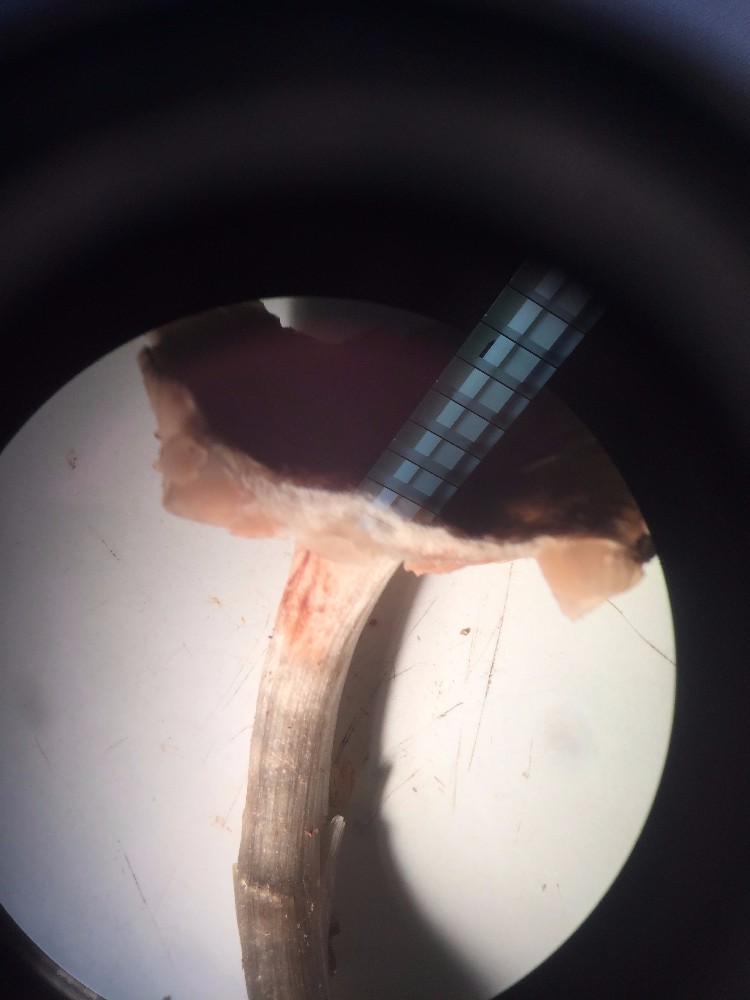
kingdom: Fungi
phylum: Basidiomycota
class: Agaricomycetes
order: Agaricales
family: Pluteaceae
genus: Pluteus
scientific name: Pluteus
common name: gråstokket skærmhat
